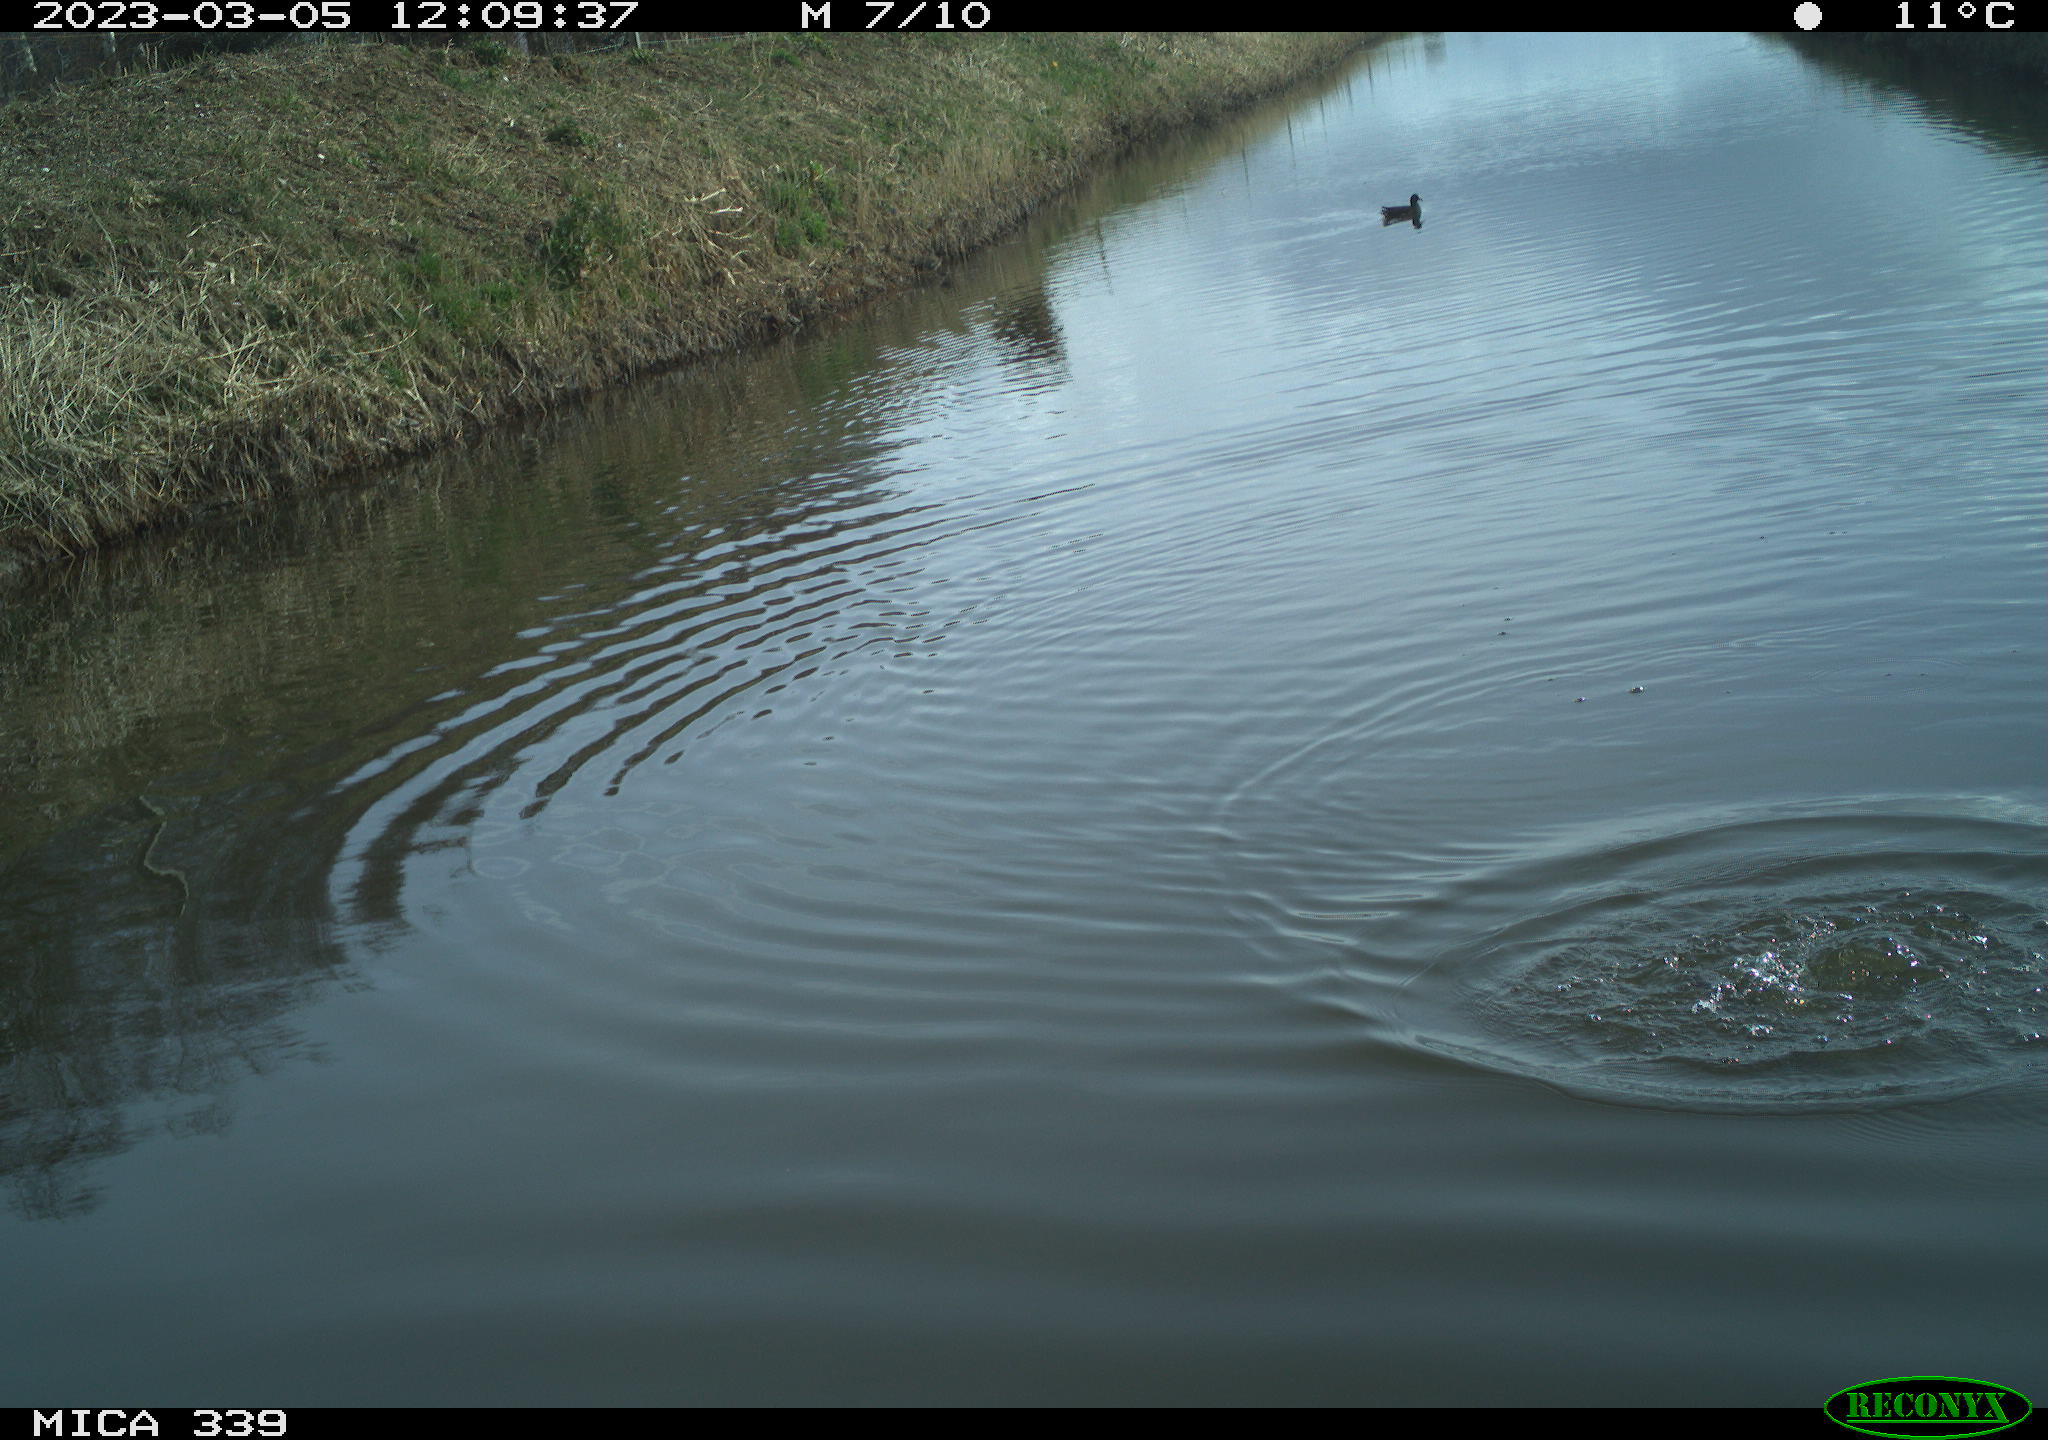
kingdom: Animalia
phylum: Chordata
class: Aves
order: Gruiformes
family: Rallidae
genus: Gallinula
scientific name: Gallinula chloropus
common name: Common moorhen
